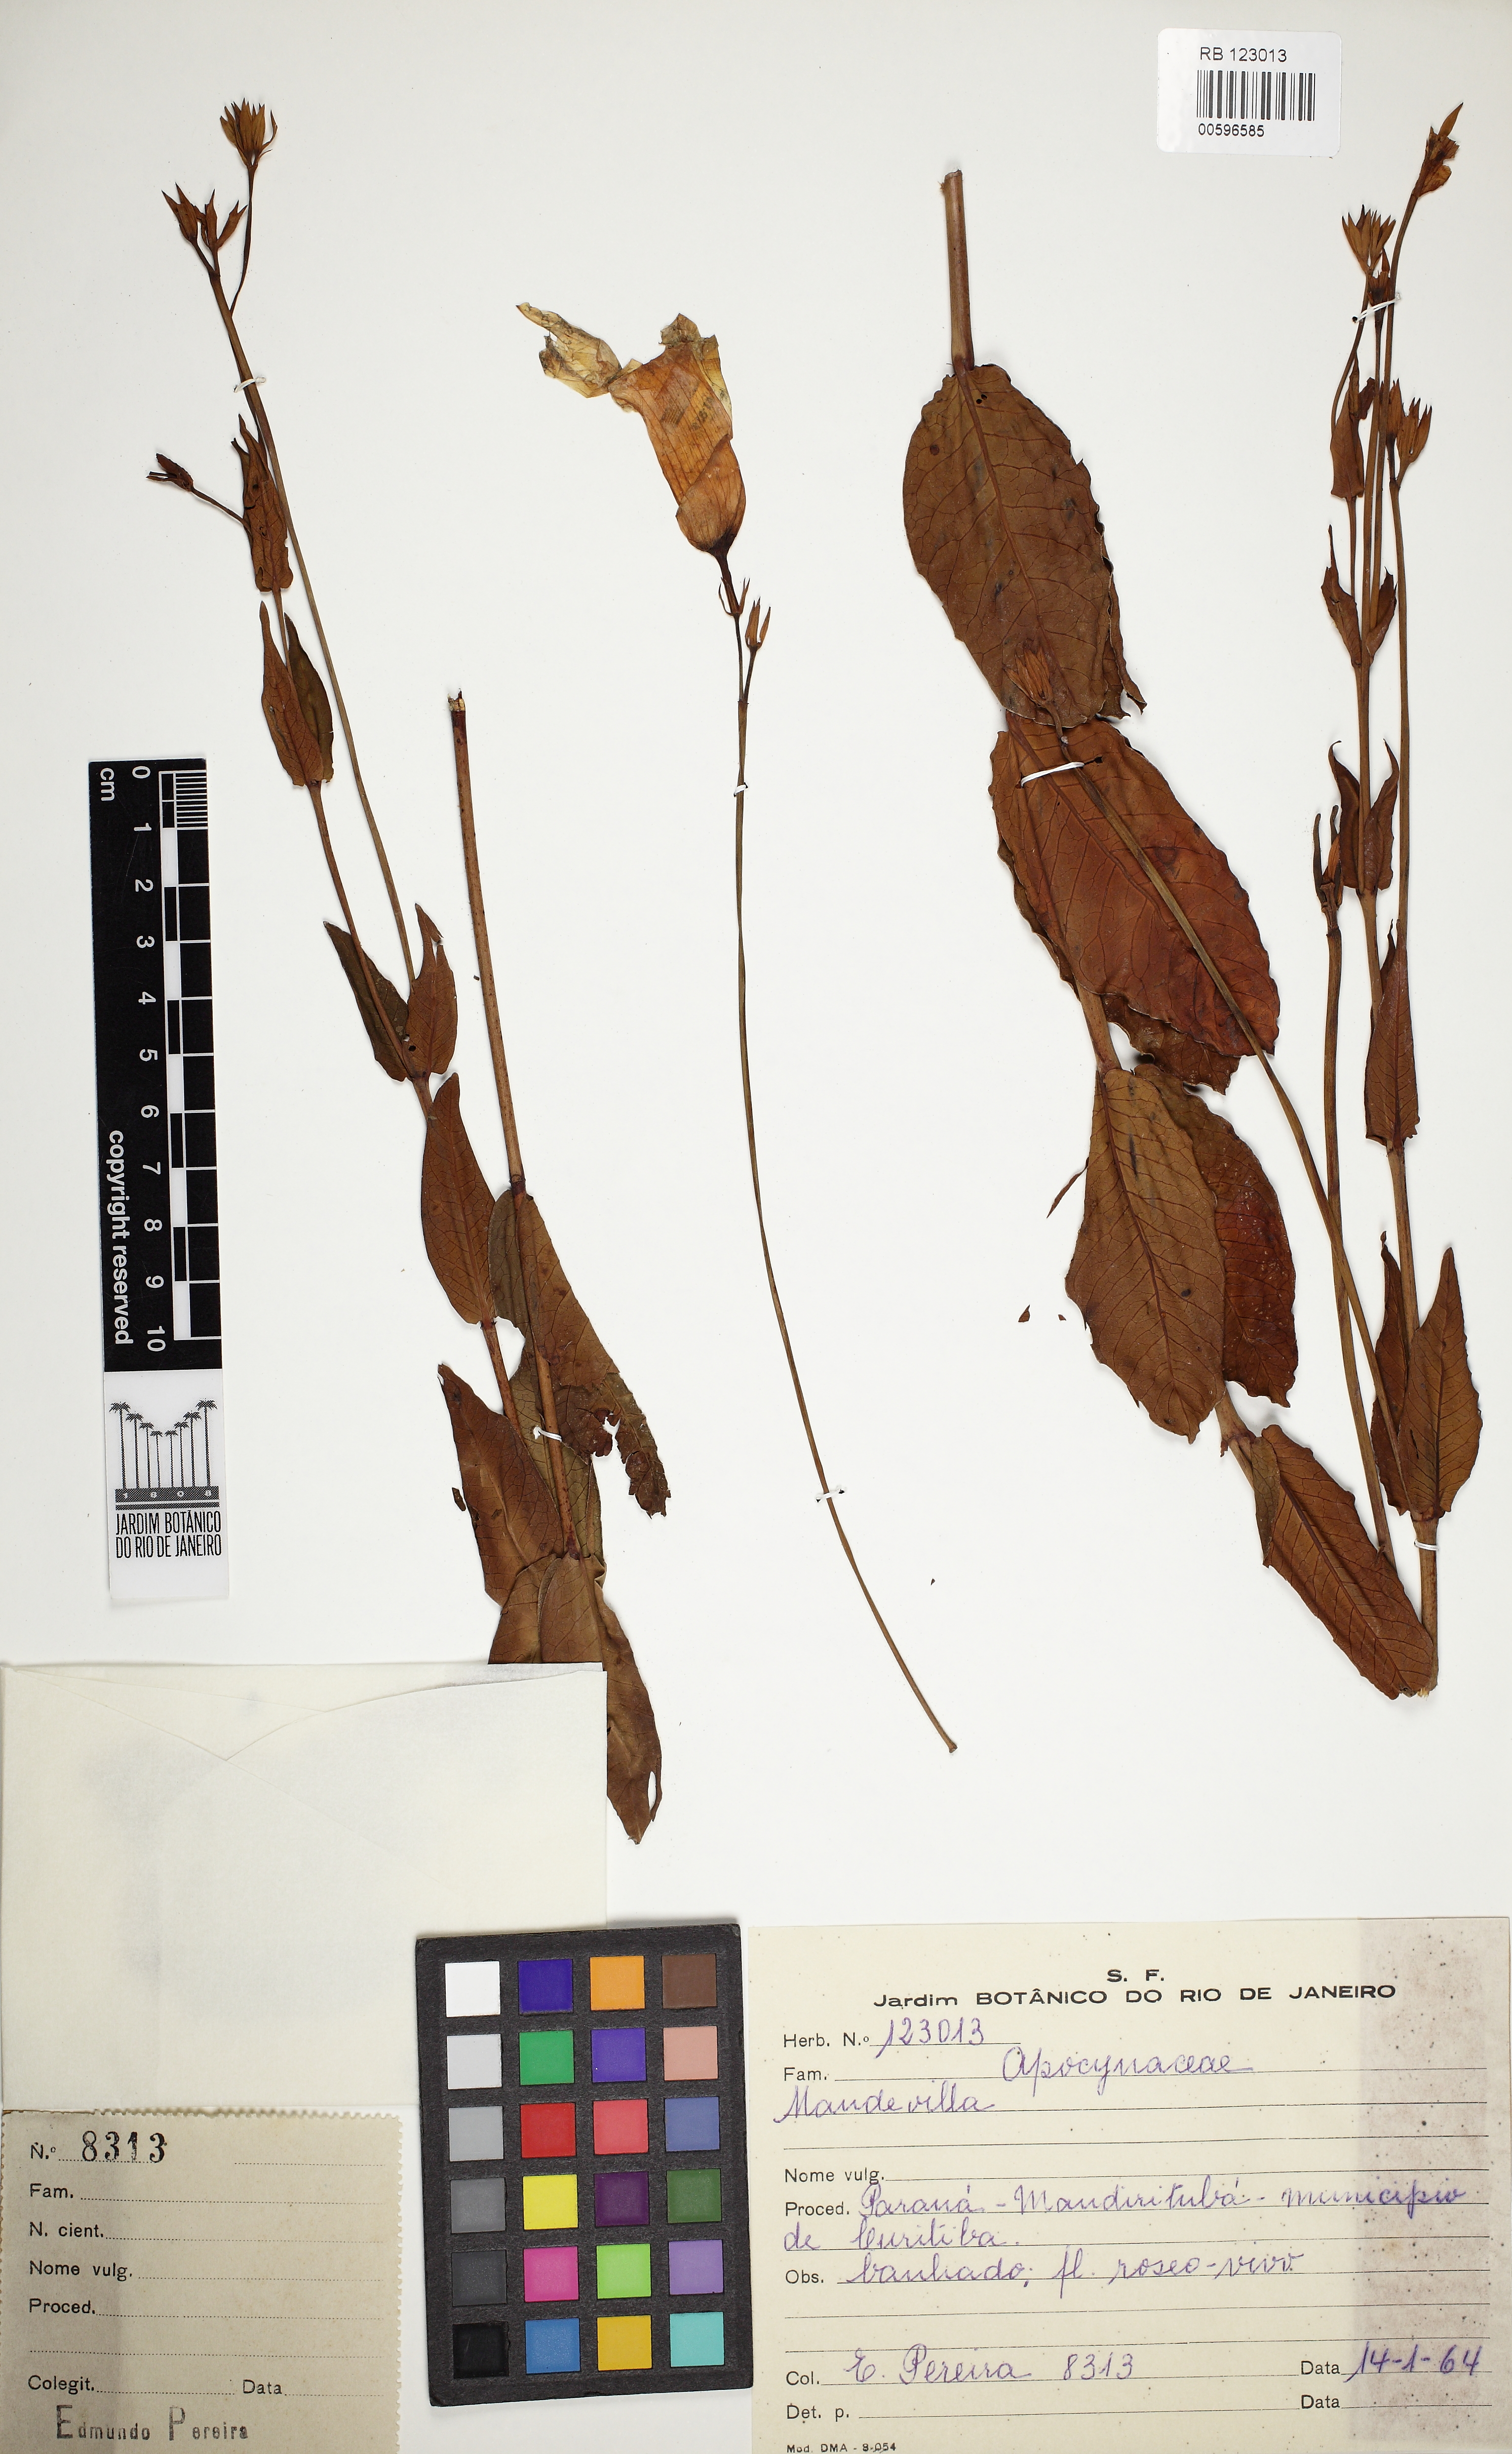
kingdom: Plantae
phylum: Tracheophyta
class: Magnoliopsida
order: Gentianales
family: Apocynaceae
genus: Mandevilla
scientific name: Mandevilla
